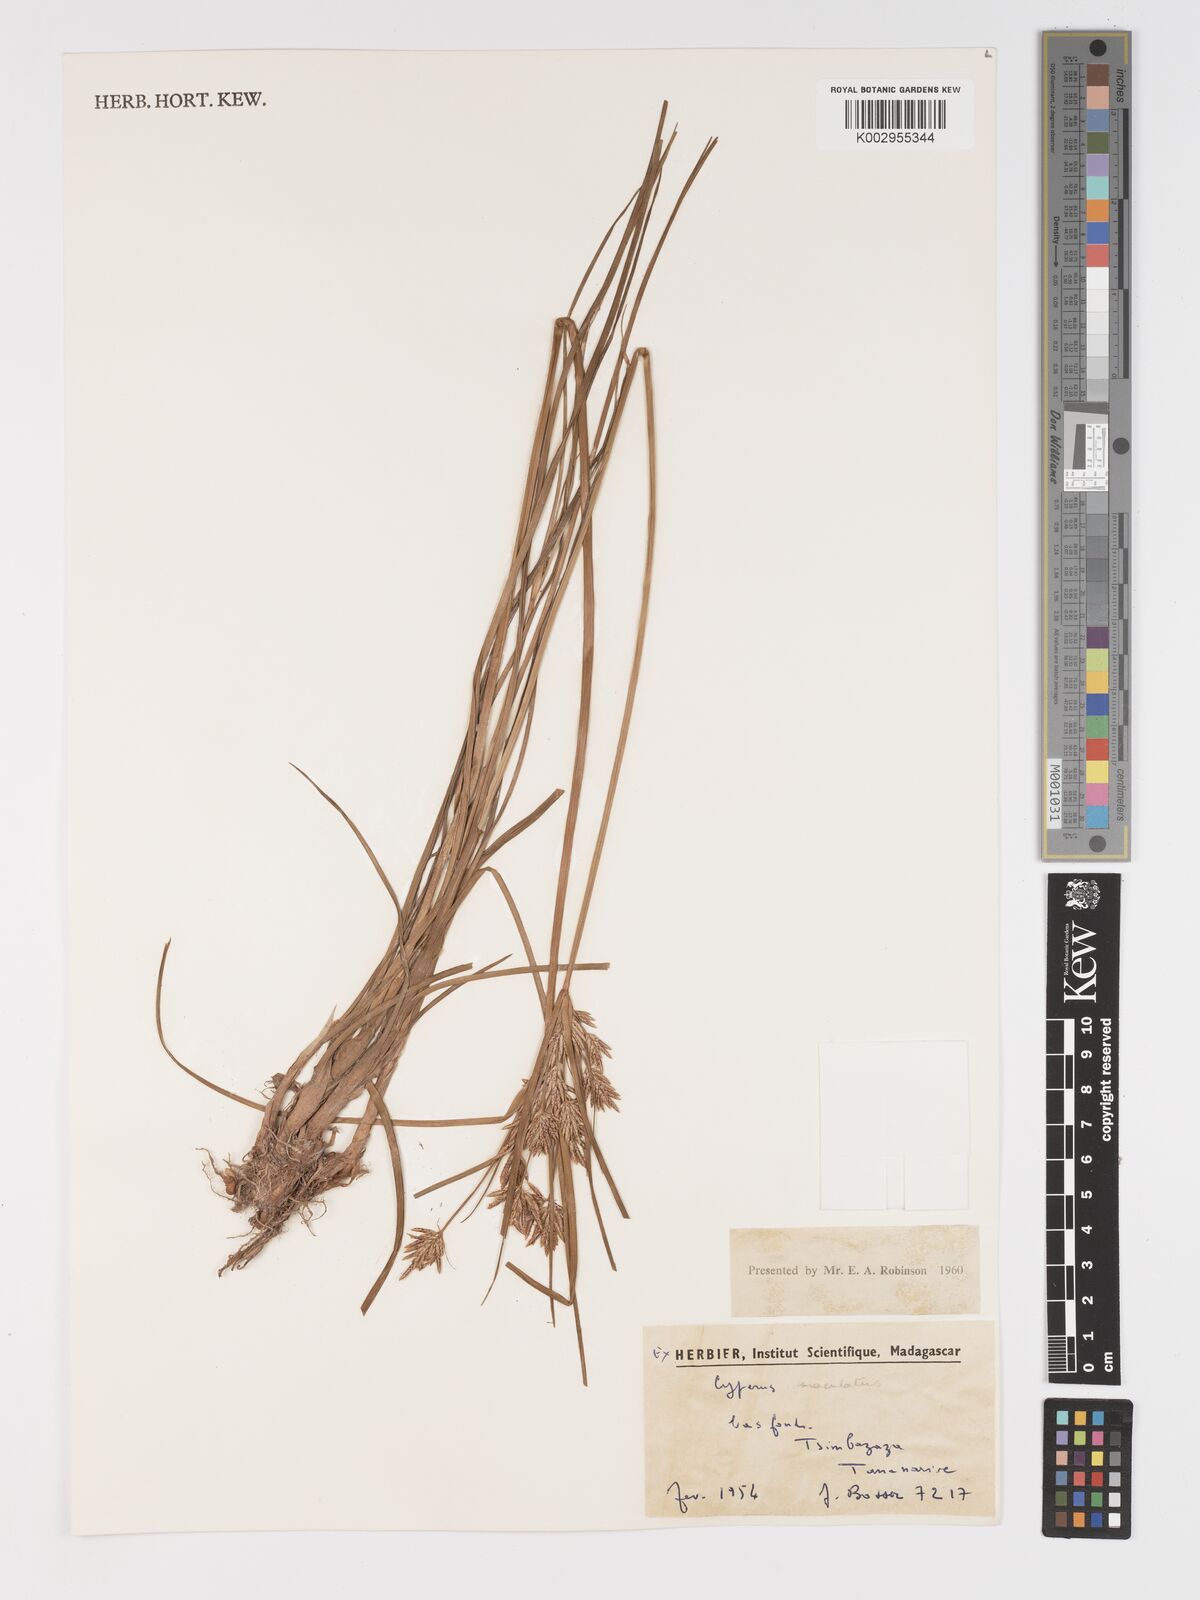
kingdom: Plantae
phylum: Tracheophyta
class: Liliopsida
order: Poales
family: Cyperaceae
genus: Cyperus
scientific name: Cyperus maculatus
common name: Maculated sedge
